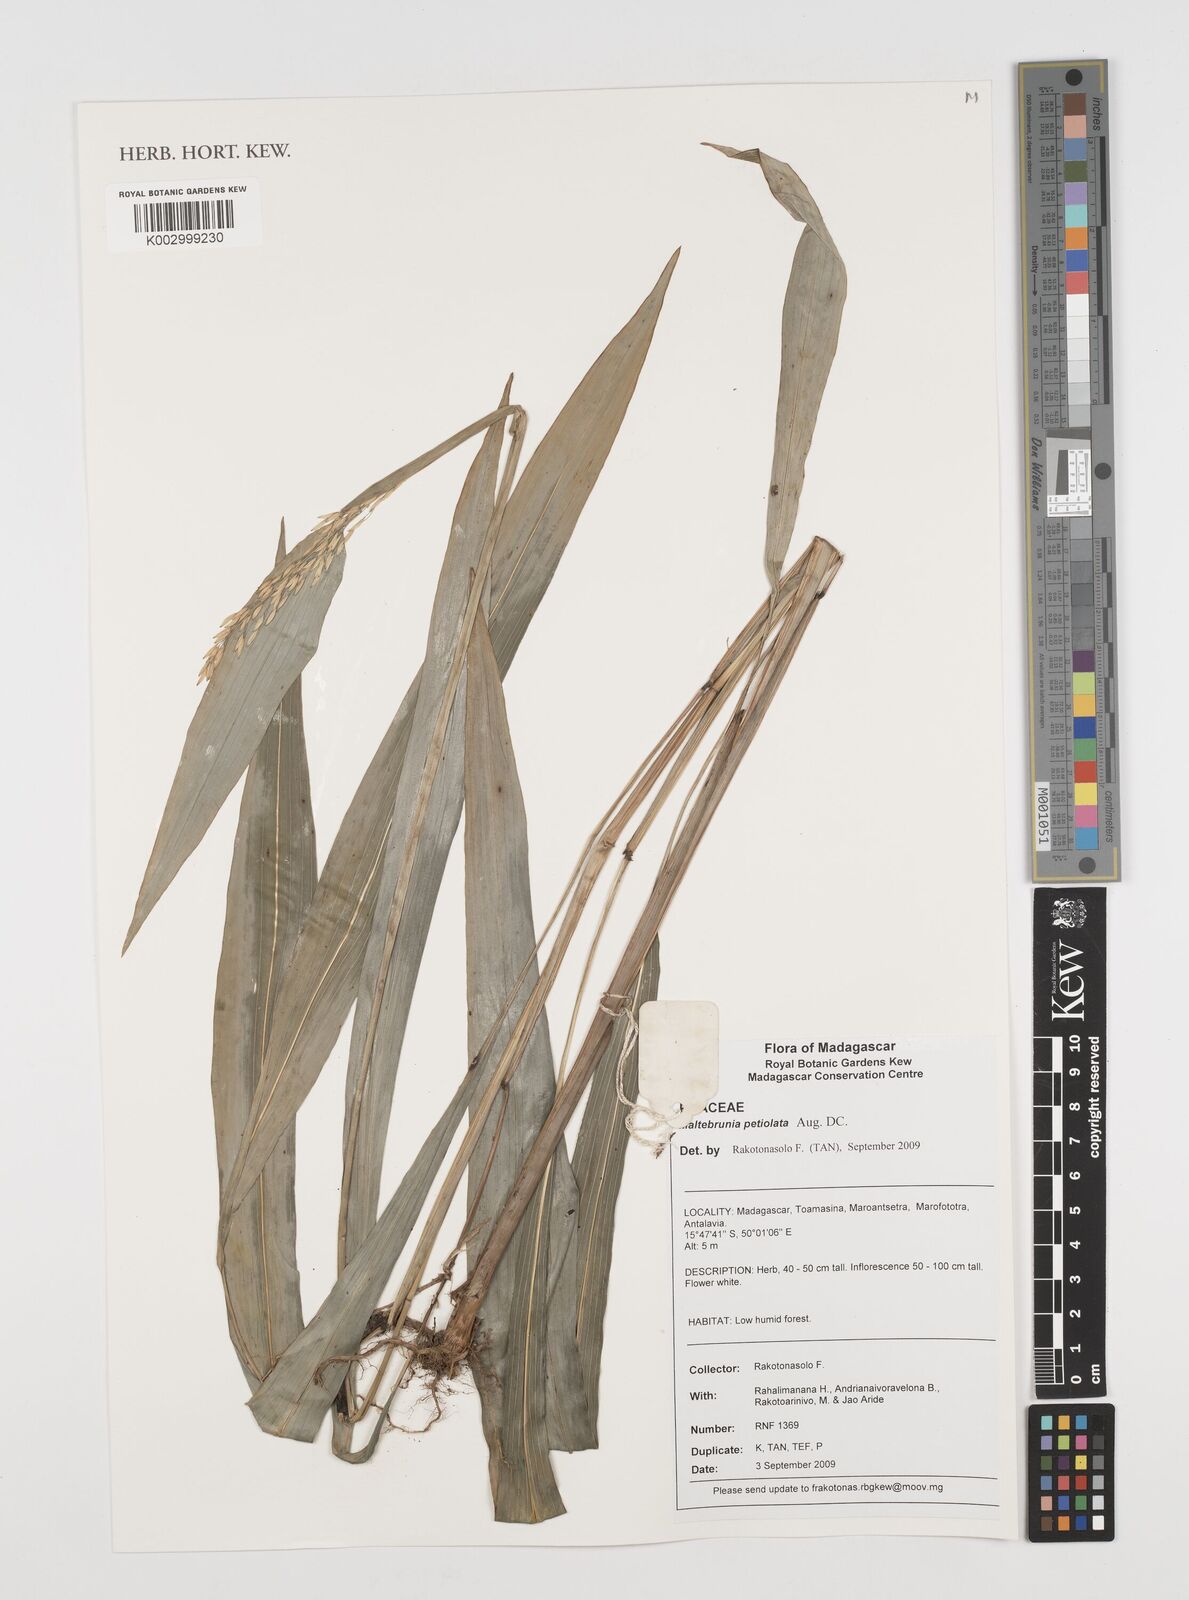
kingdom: Plantae
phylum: Tracheophyta
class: Liliopsida
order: Poales
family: Poaceae
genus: Maltebrunia
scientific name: Maltebrunia leersioides
